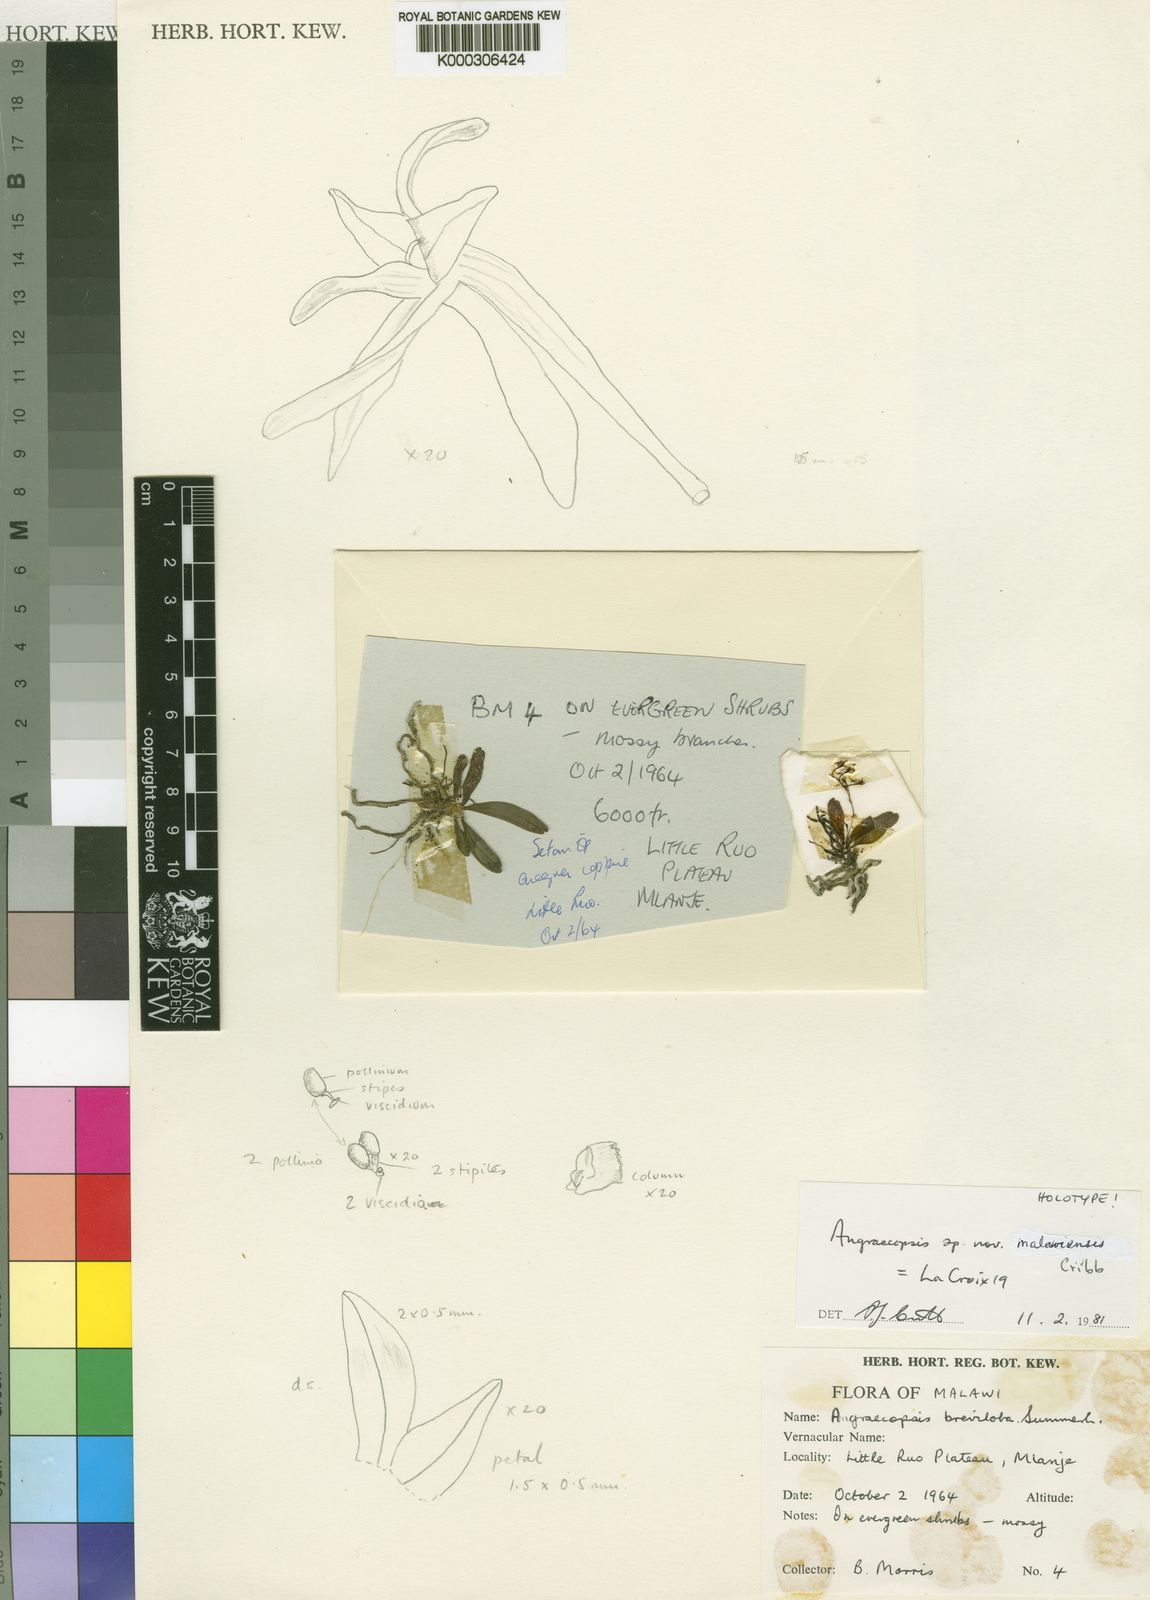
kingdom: Plantae
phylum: Tracheophyta
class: Liliopsida
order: Asparagales
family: Orchidaceae
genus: Angraecopsis
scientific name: Angraecopsis malawiensis
